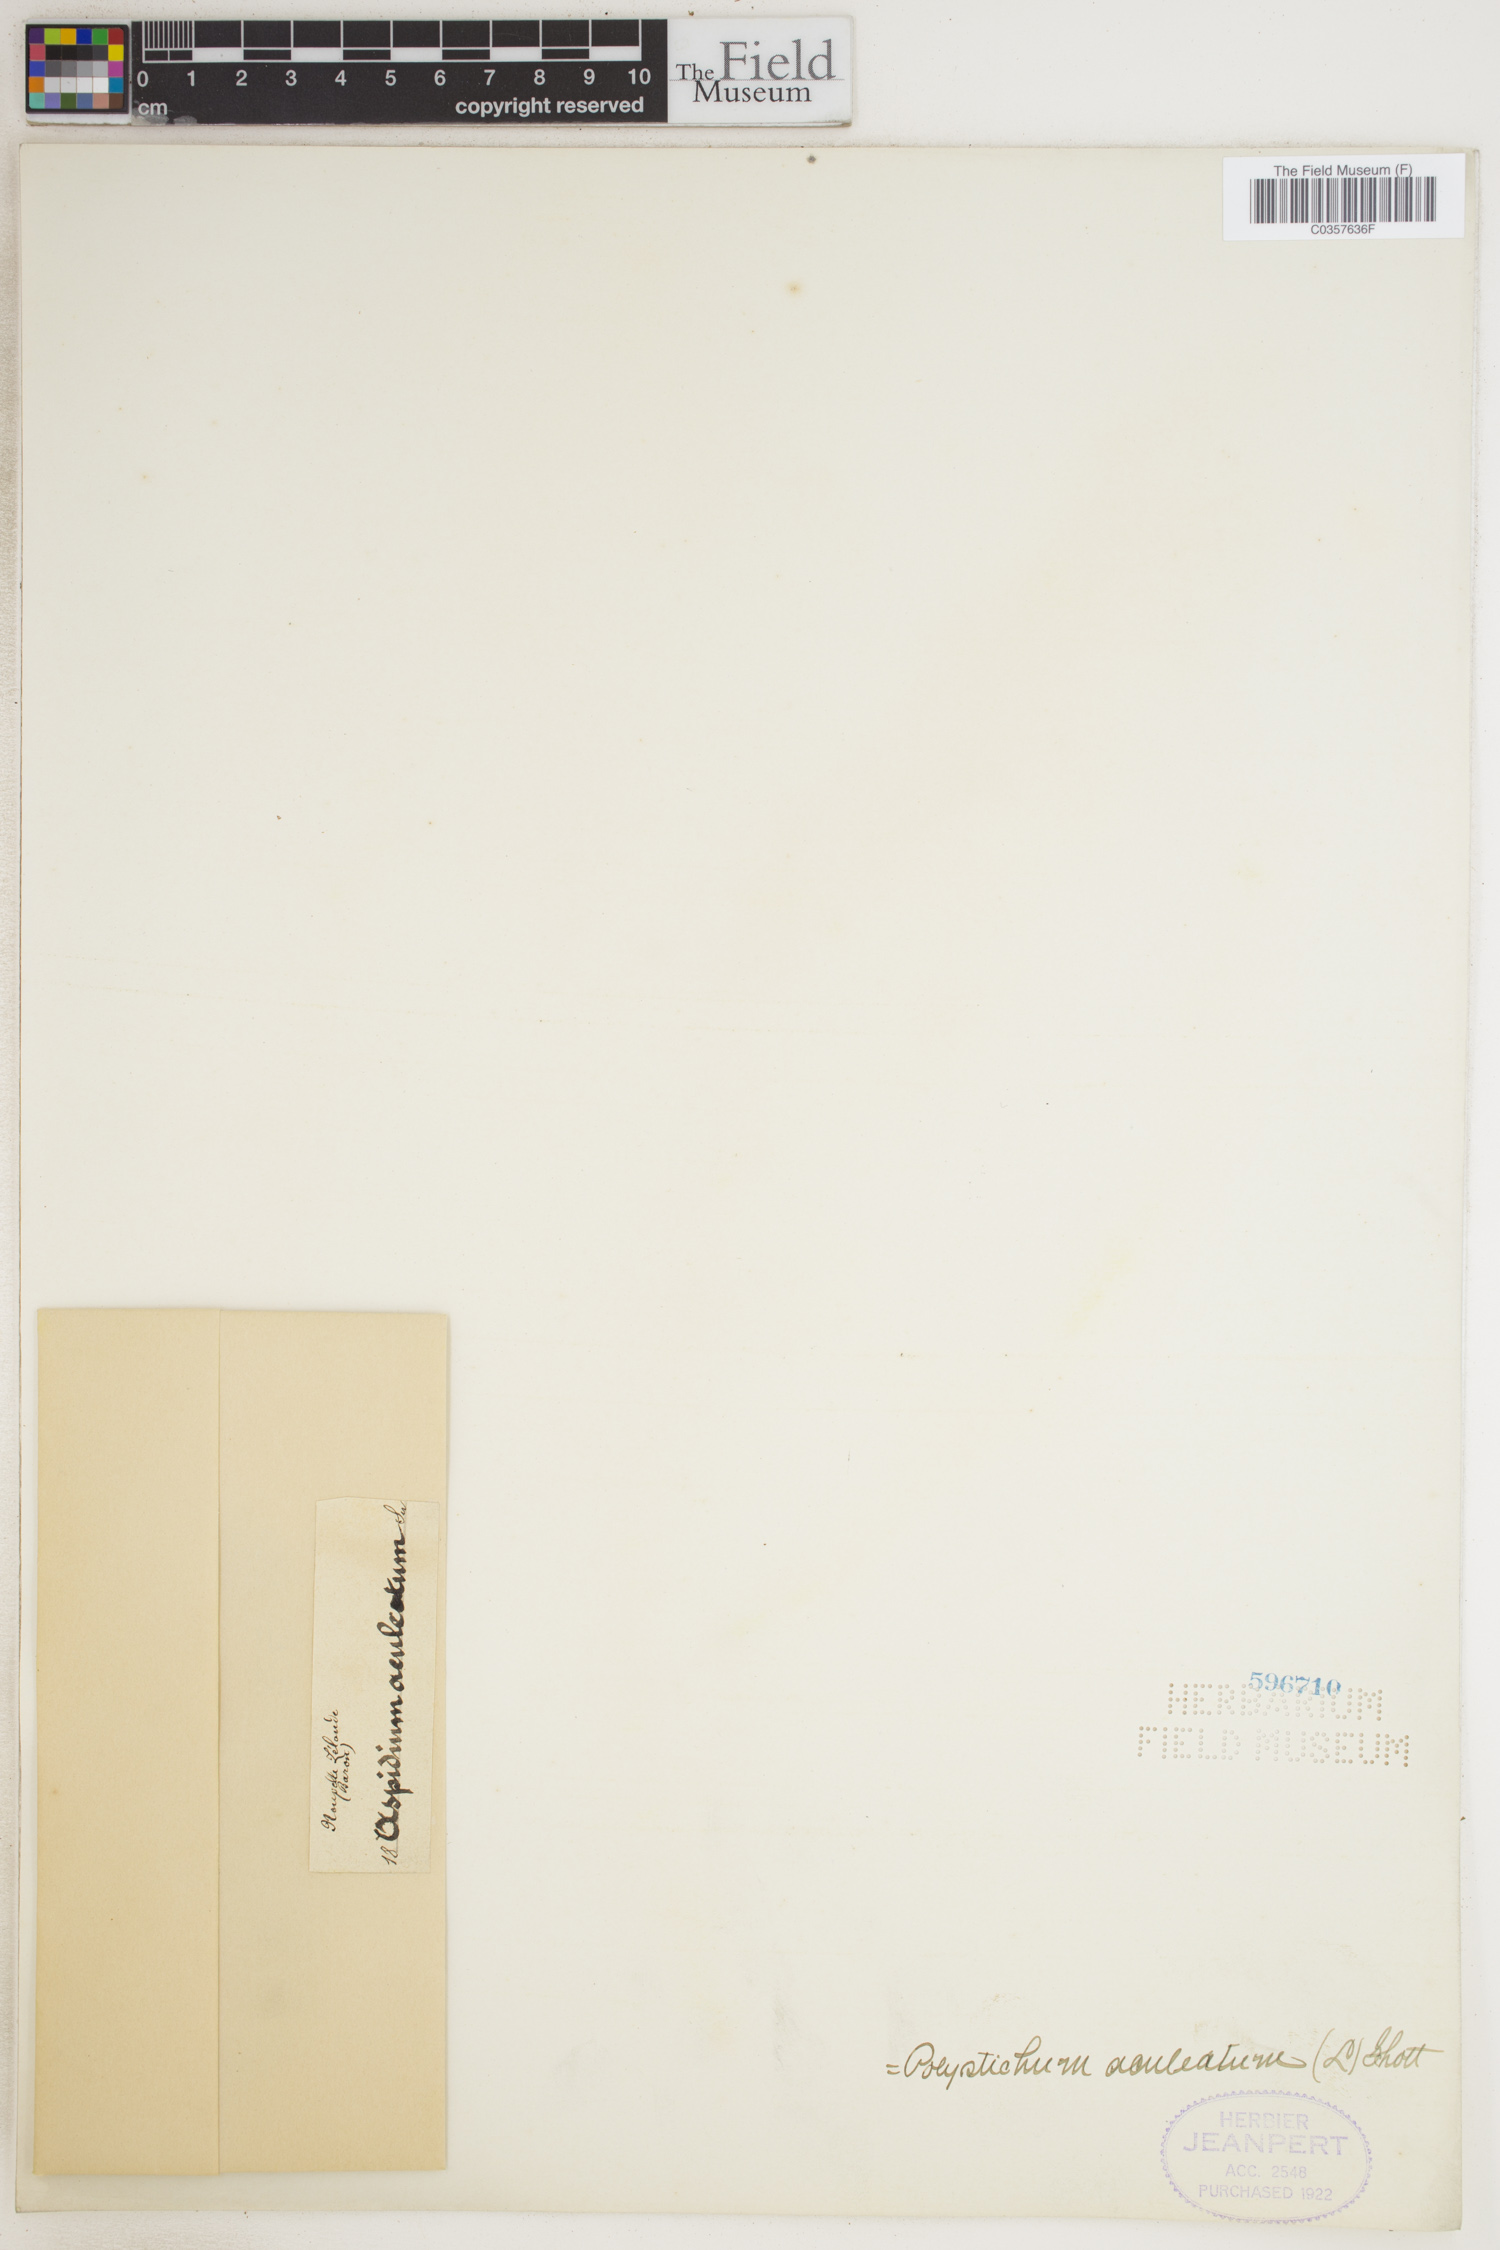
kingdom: Plantae
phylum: Tracheophyta
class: Polypodiopsida
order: Polypodiales
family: Dryopteridaceae
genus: Polystichum
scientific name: Polystichum aculeatum
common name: Hard shield-fern
